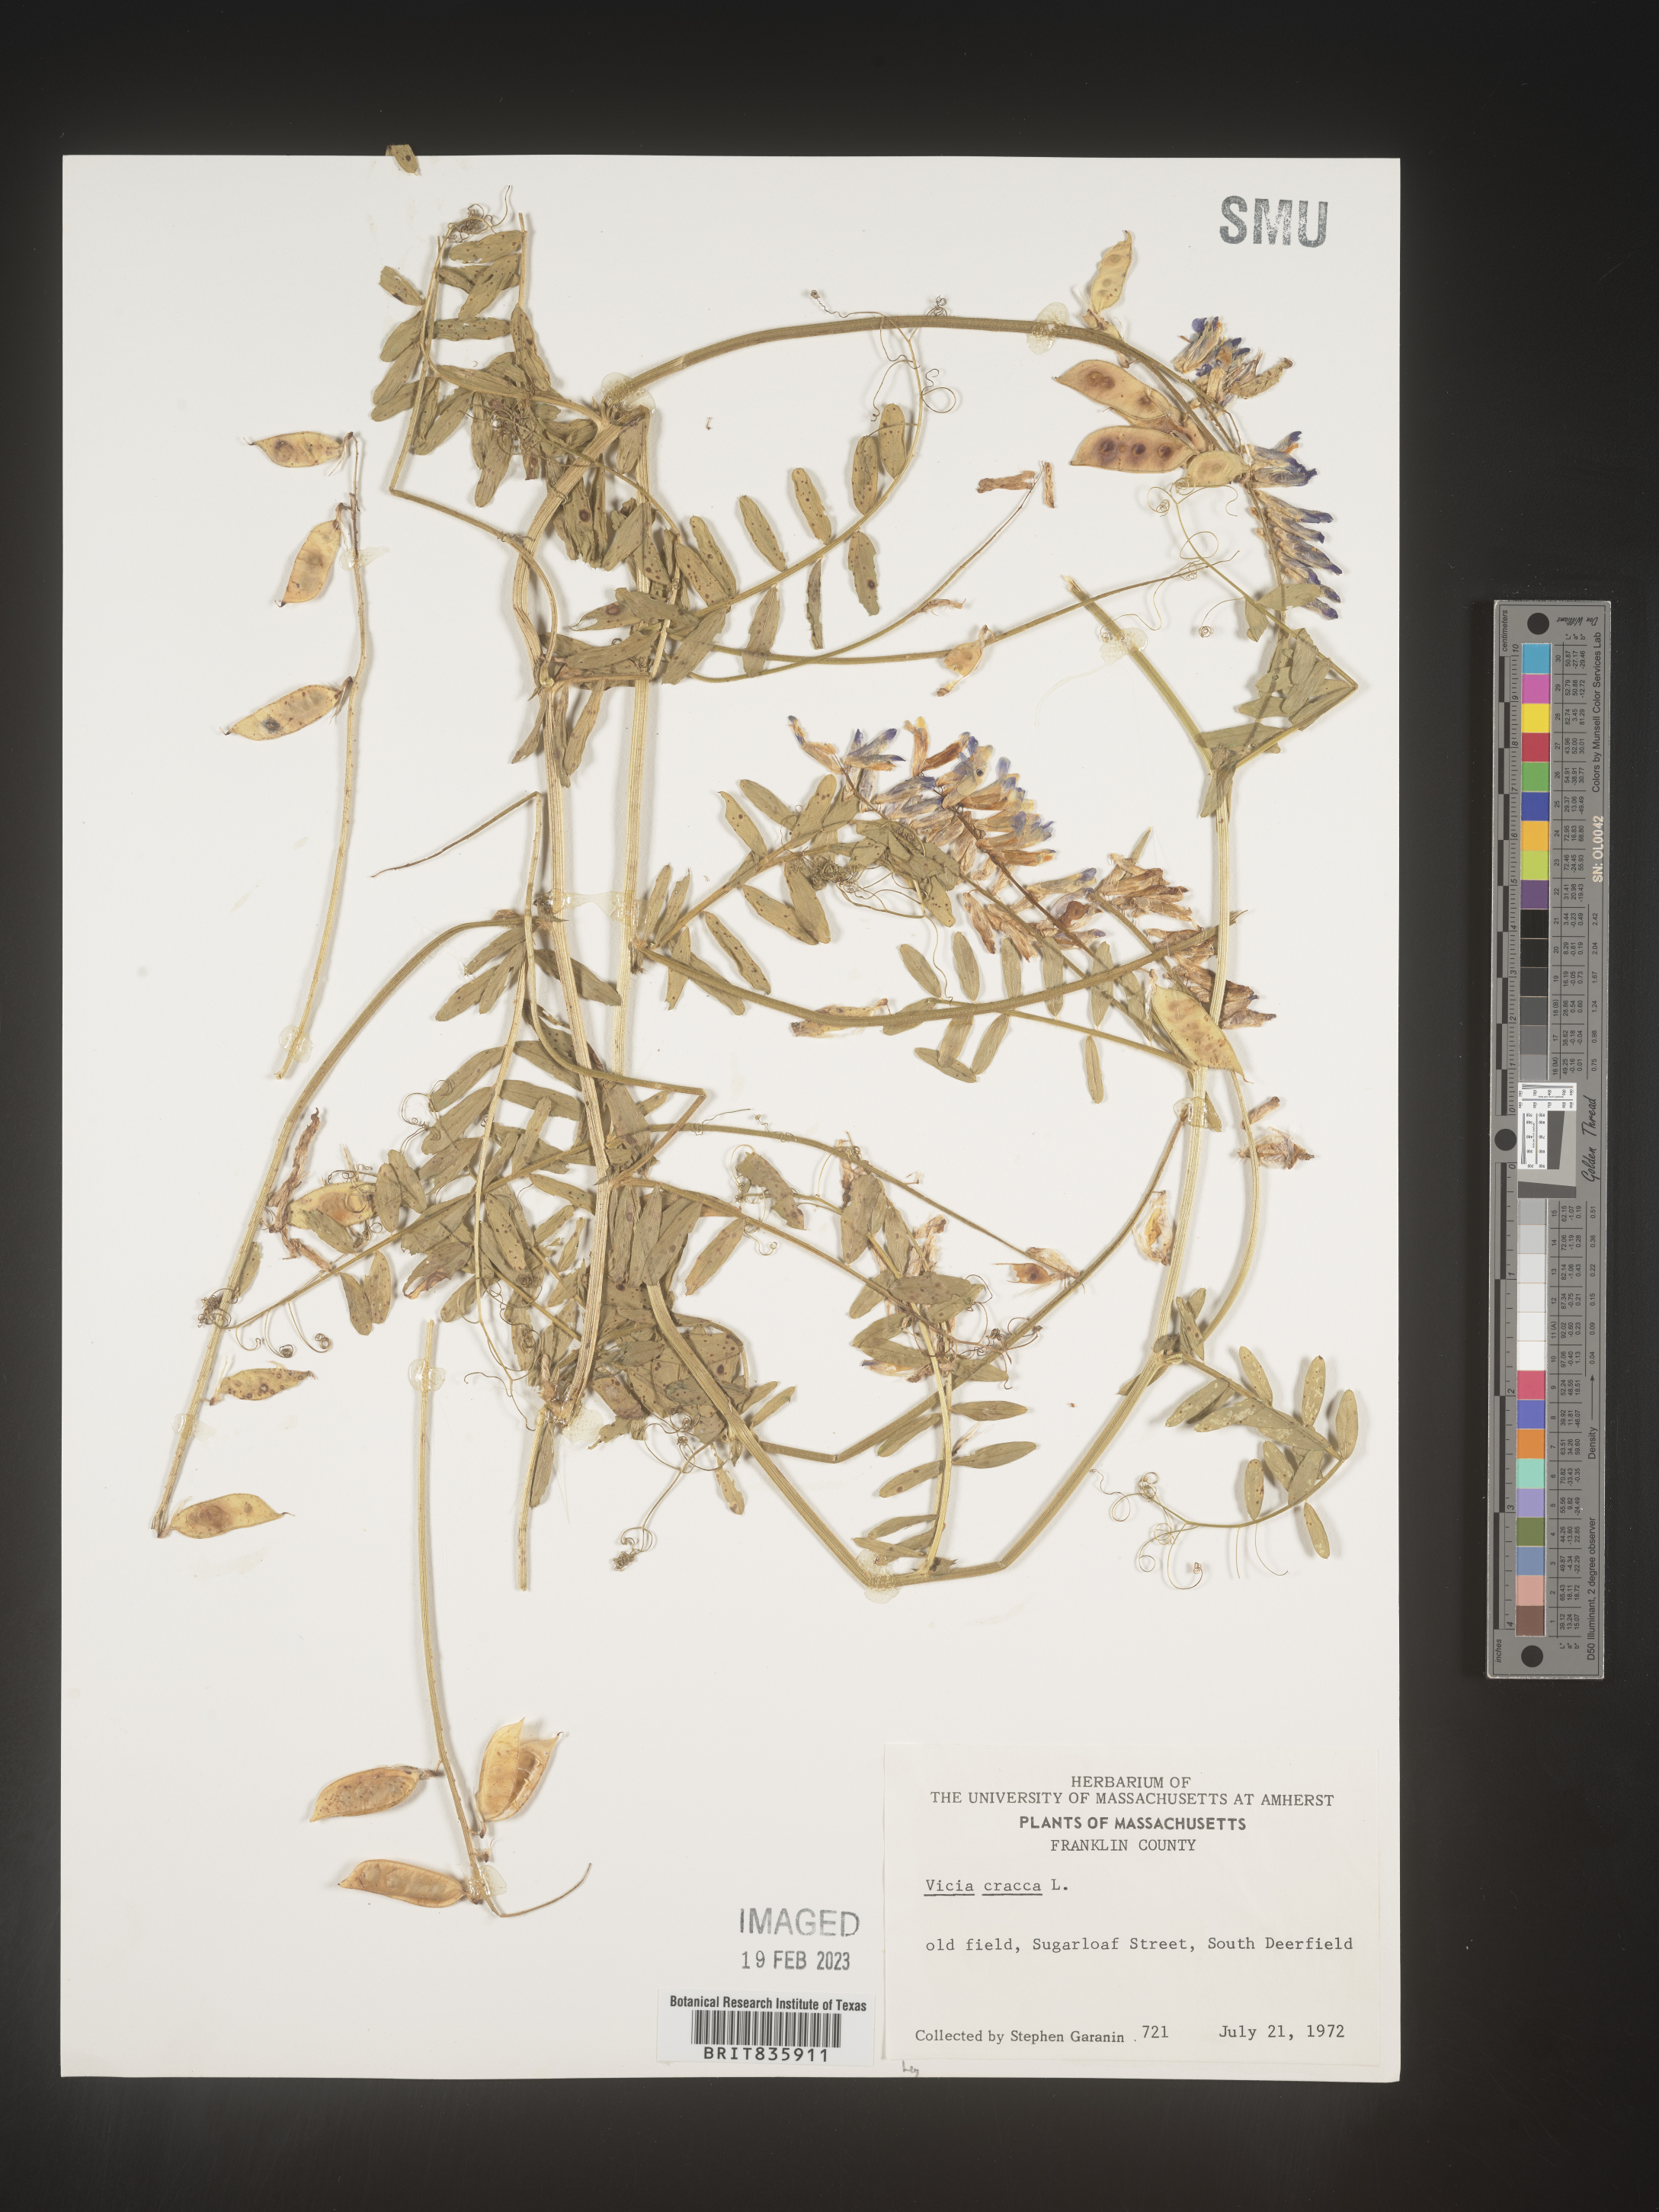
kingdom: Plantae
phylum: Tracheophyta
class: Magnoliopsida
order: Fabales
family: Fabaceae
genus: Vicia
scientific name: Vicia cracca
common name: Bird vetch
